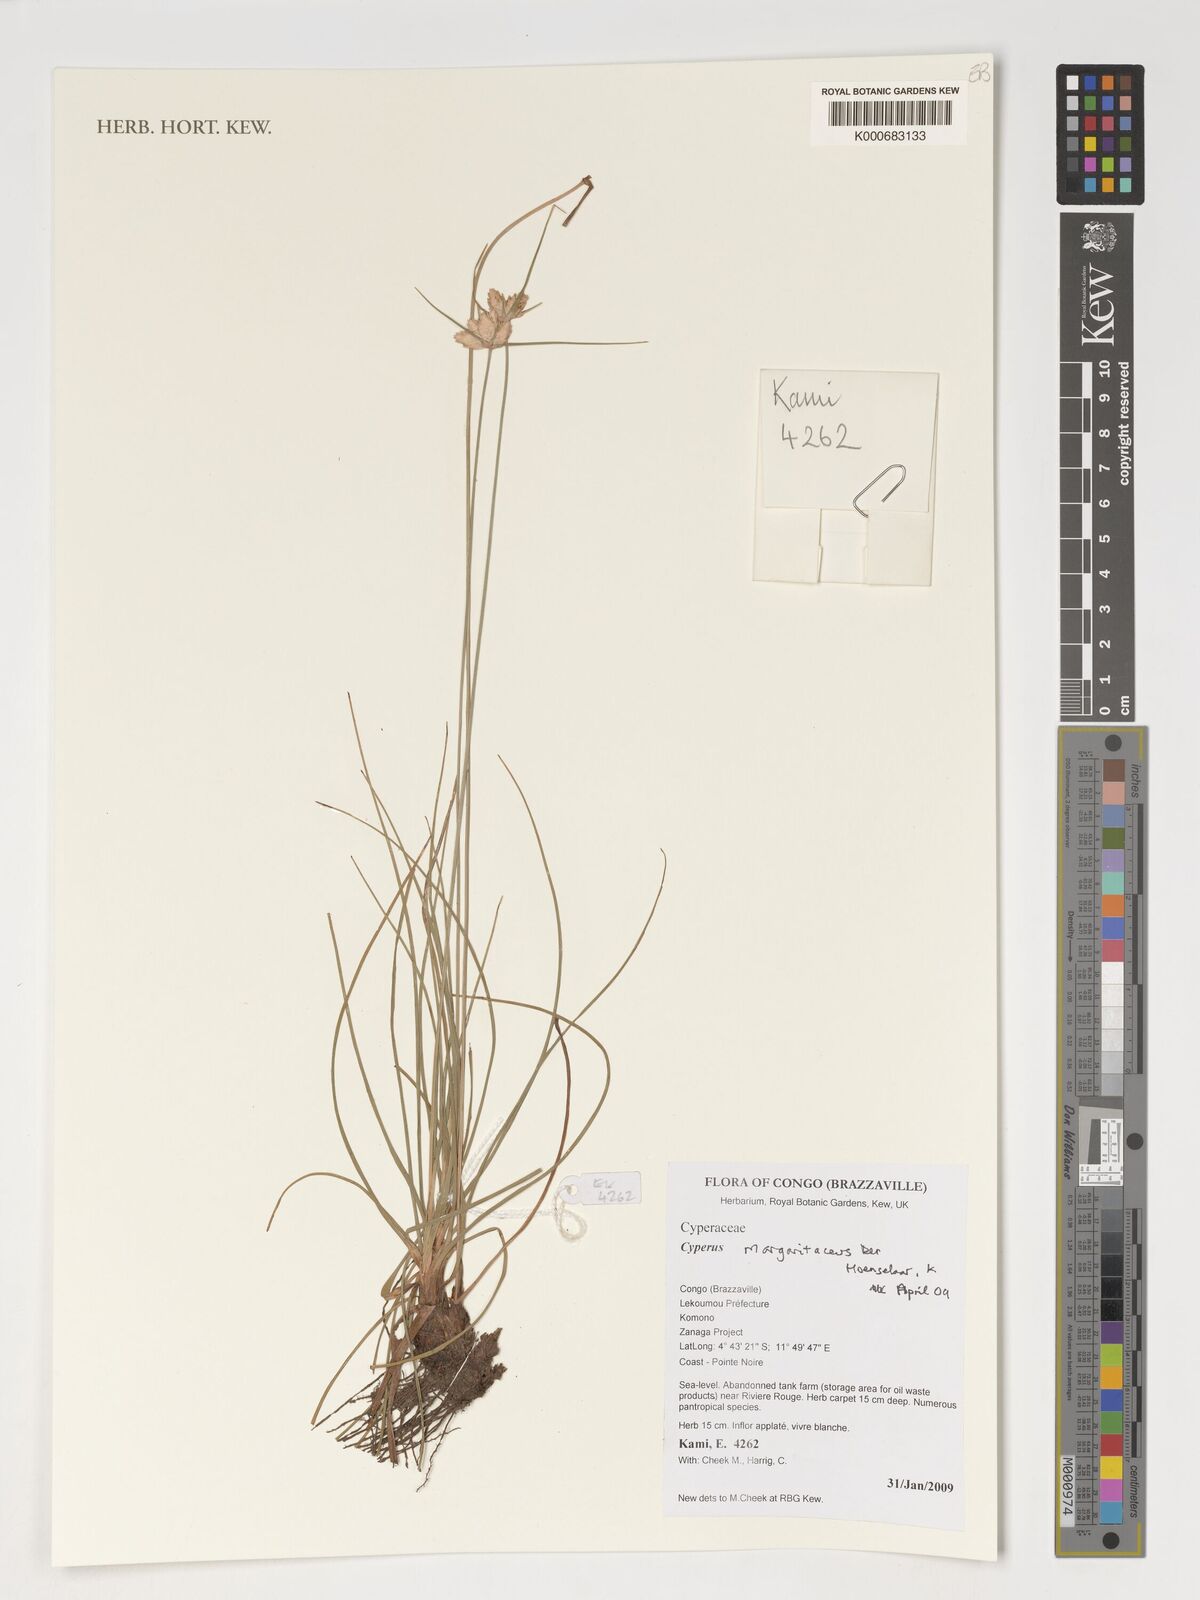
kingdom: Plantae
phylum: Tracheophyta
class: Liliopsida
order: Poales
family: Cyperaceae
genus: Cyperus
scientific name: Cyperus margaritaceus
